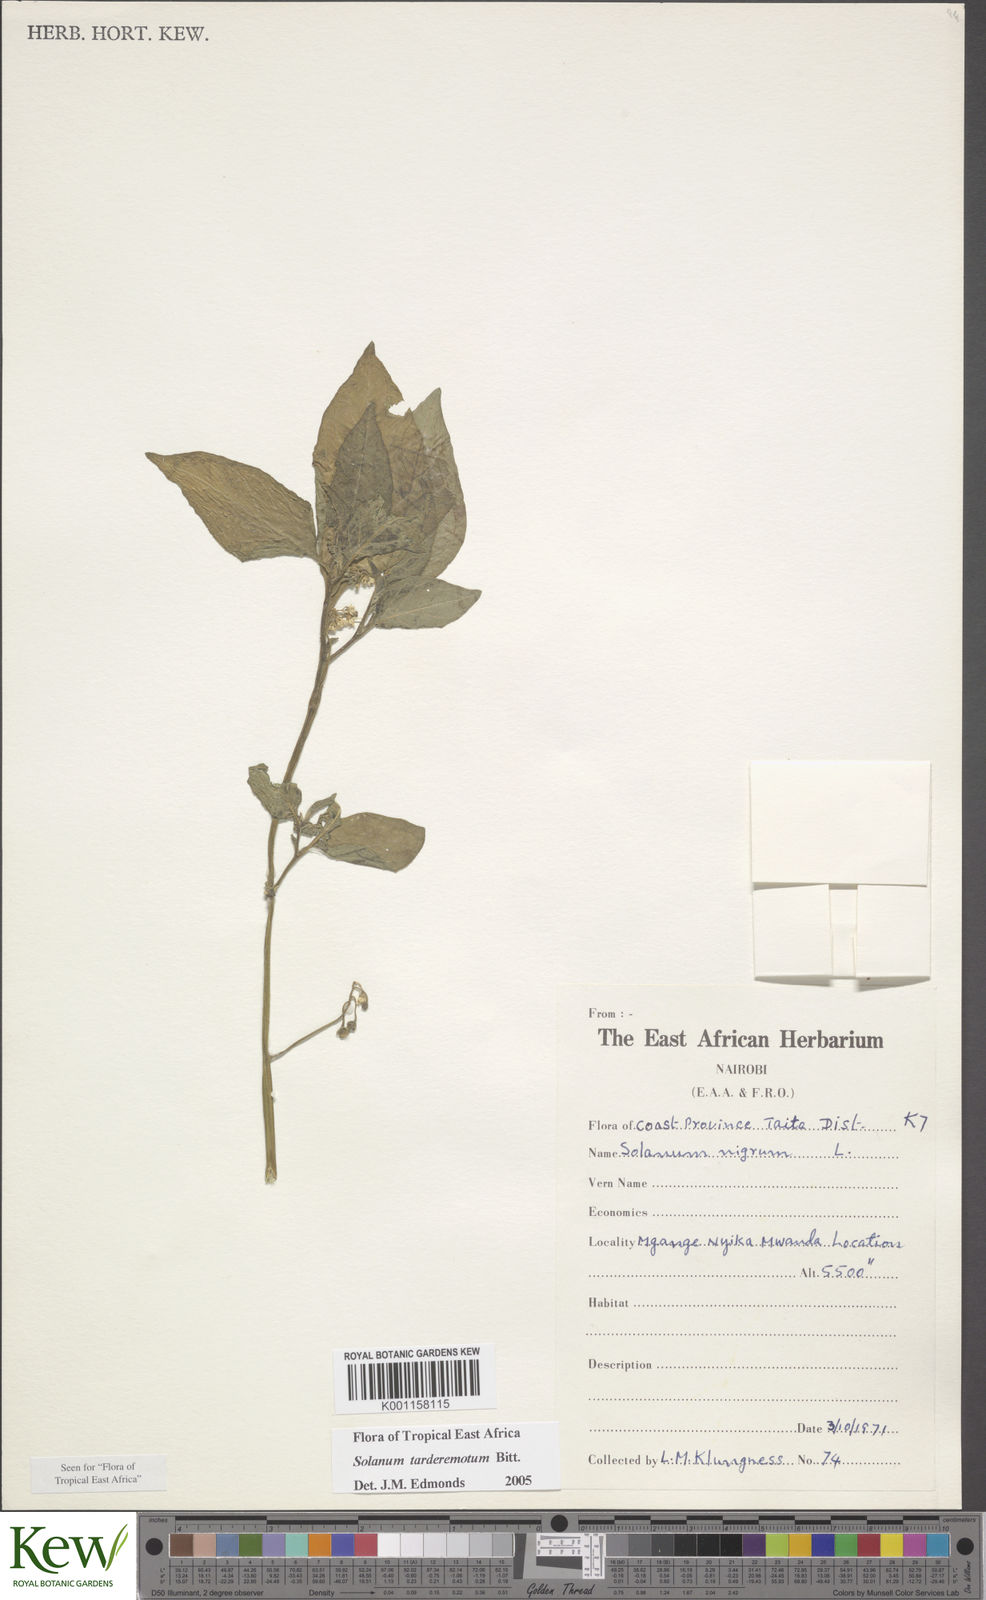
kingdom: Plantae
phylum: Tracheophyta
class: Magnoliopsida
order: Solanales
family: Solanaceae
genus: Solanum
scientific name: Solanum tarderemotum
